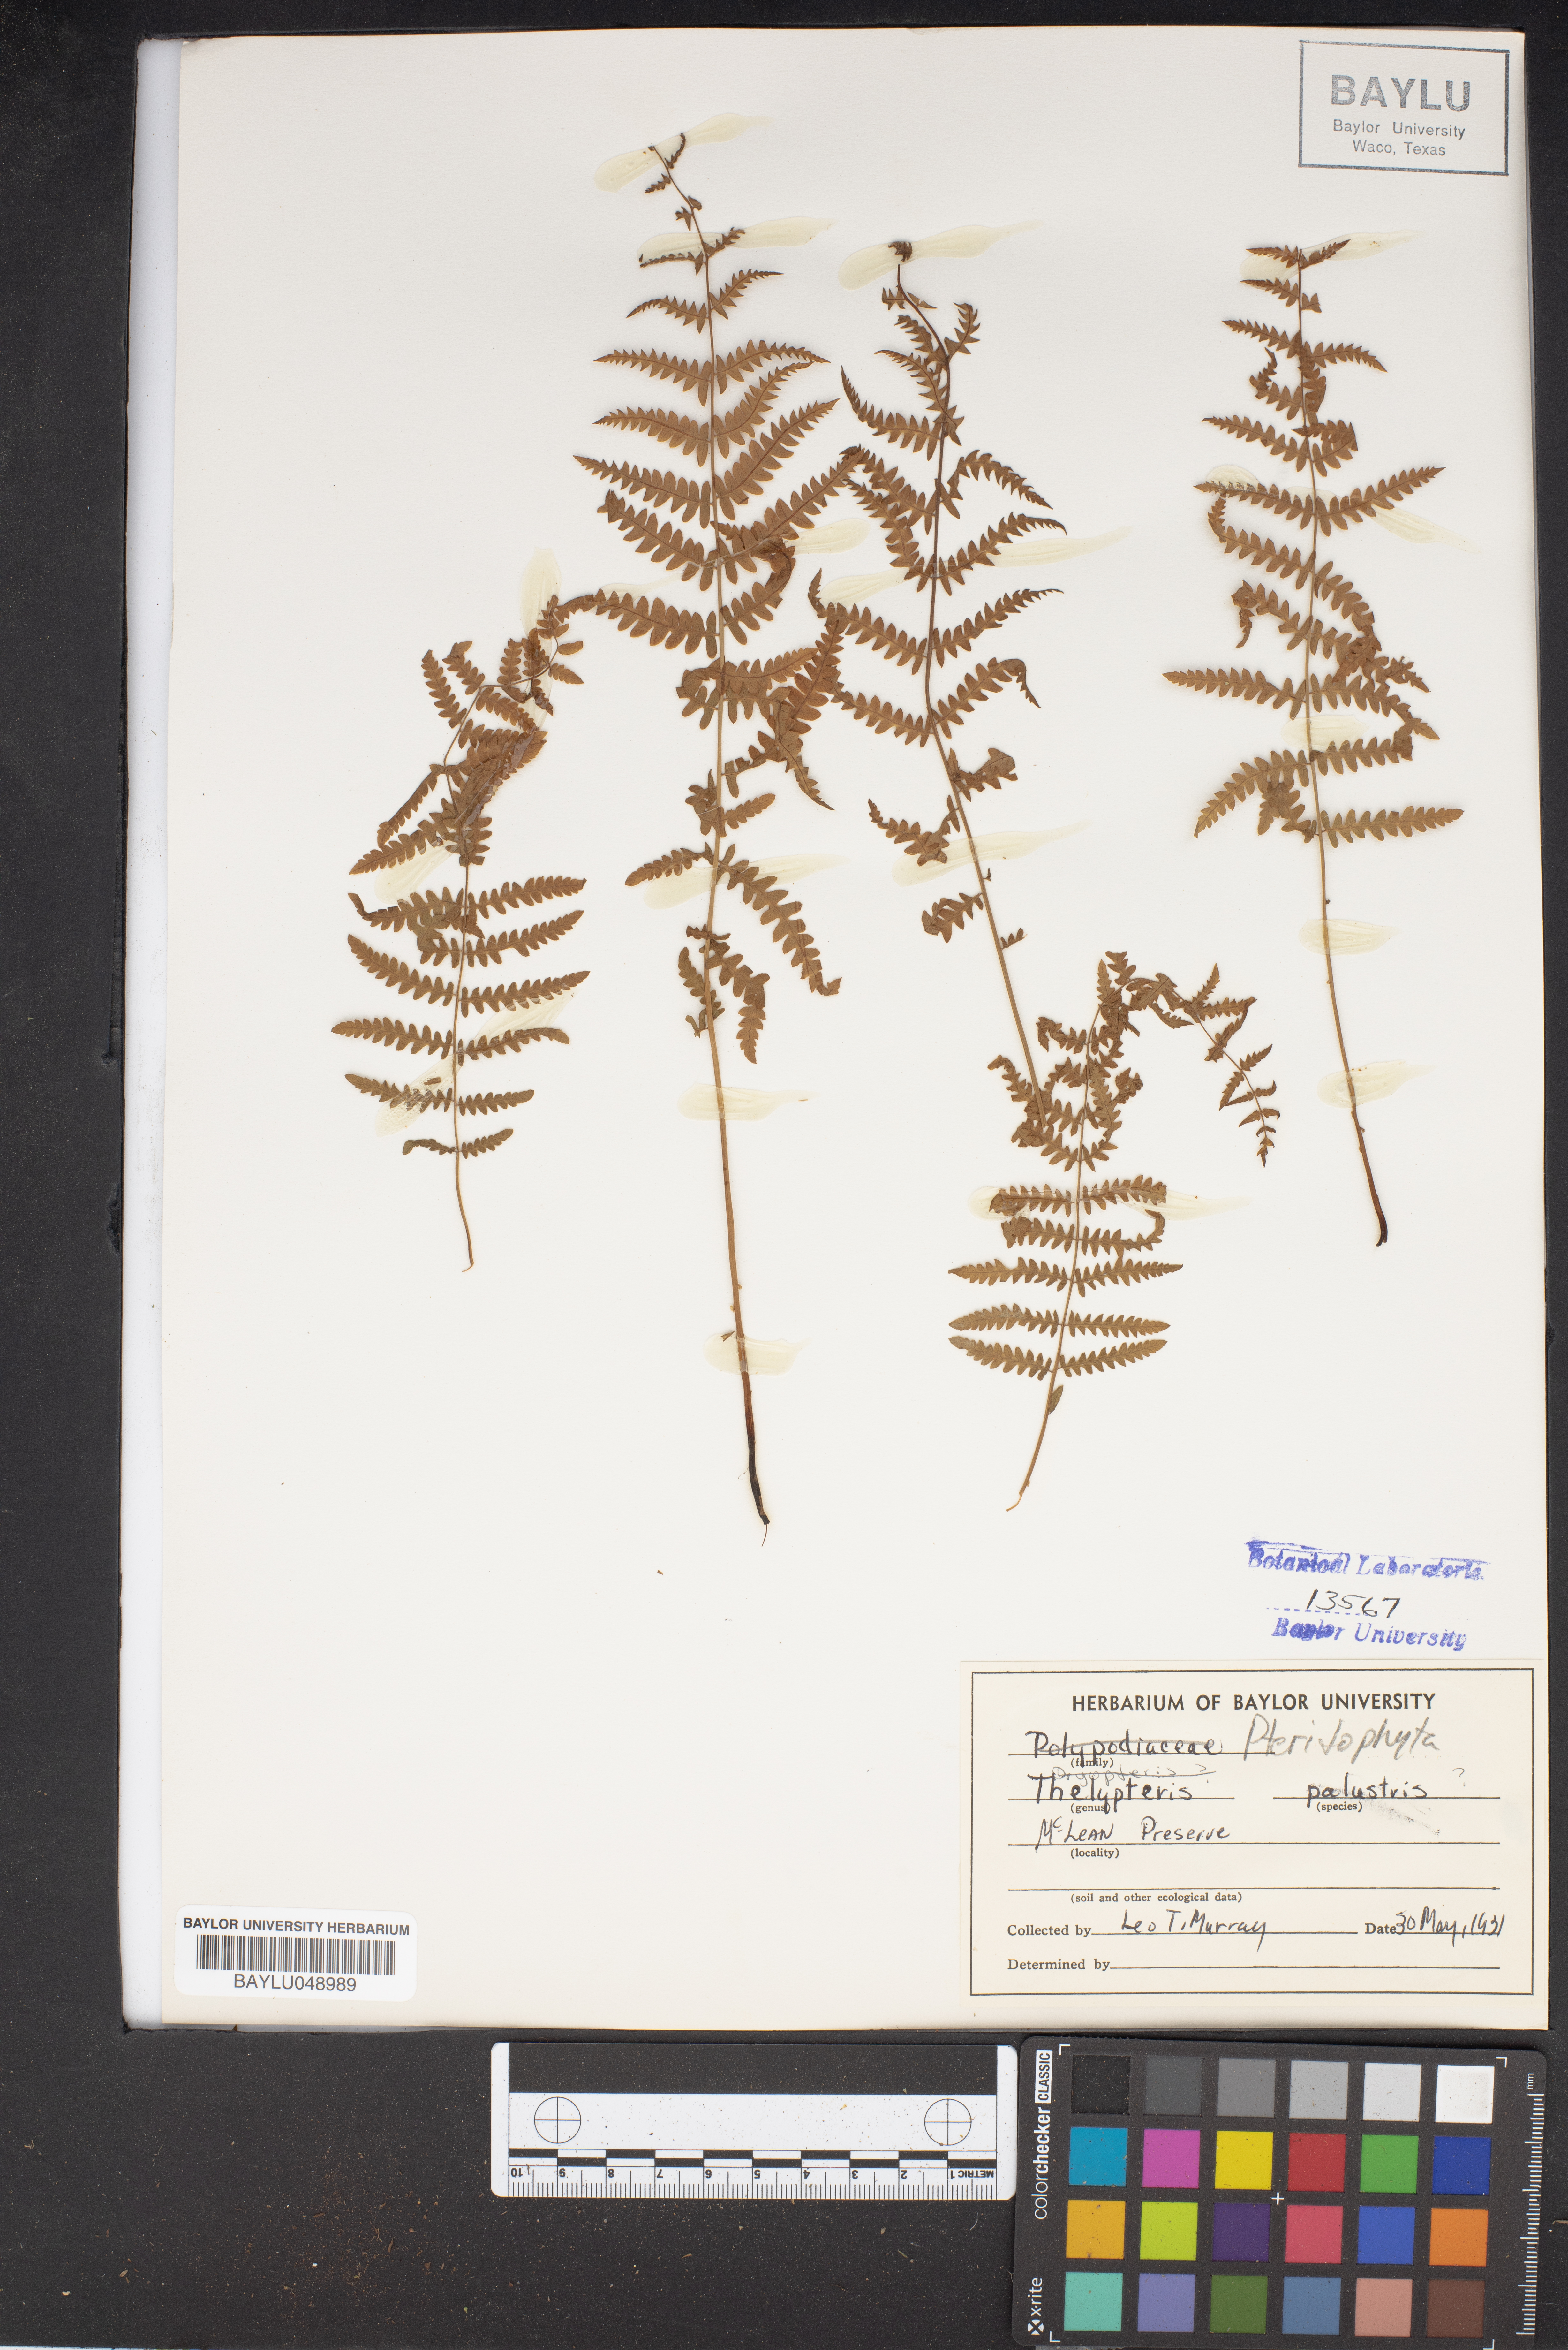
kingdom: Plantae
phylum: Tracheophyta
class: Polypodiopsida
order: Polypodiales
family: Thelypteridaceae
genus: Thelypteris
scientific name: Thelypteris palustris
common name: Marsh fern
